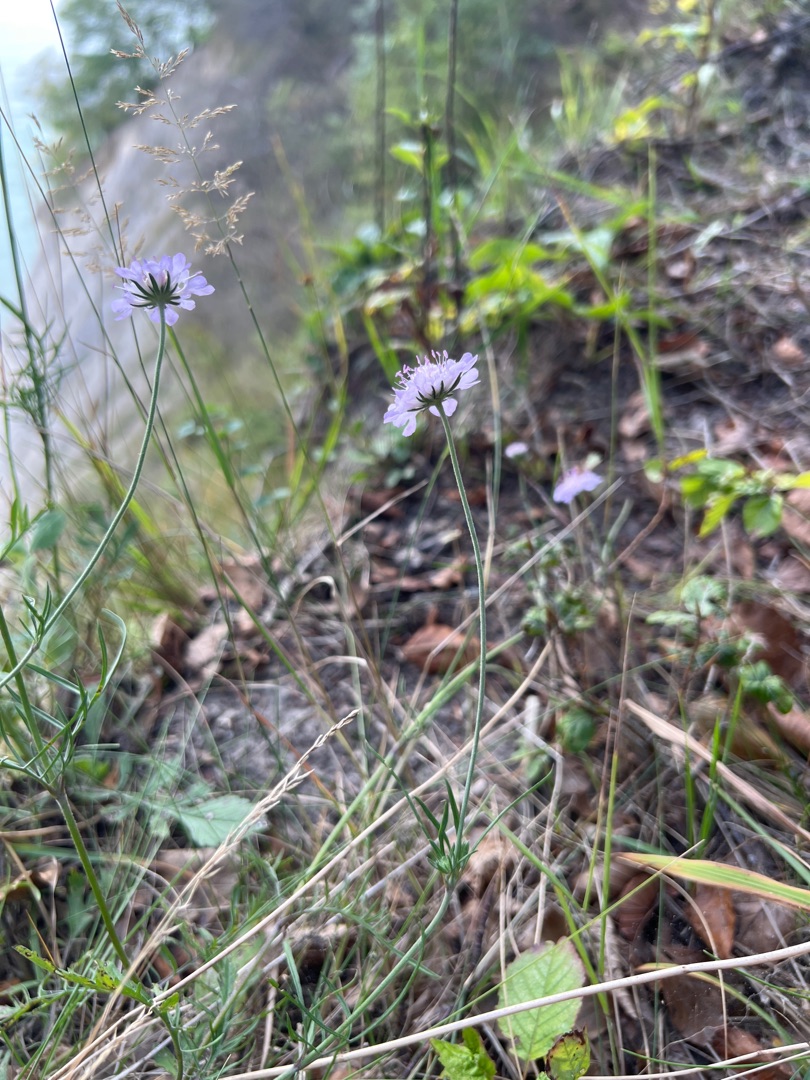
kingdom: Plantae
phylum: Tracheophyta
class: Magnoliopsida
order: Dipsacales
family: Caprifoliaceae
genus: Scabiosa
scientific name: Scabiosa columbaria
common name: Due-skabiose
